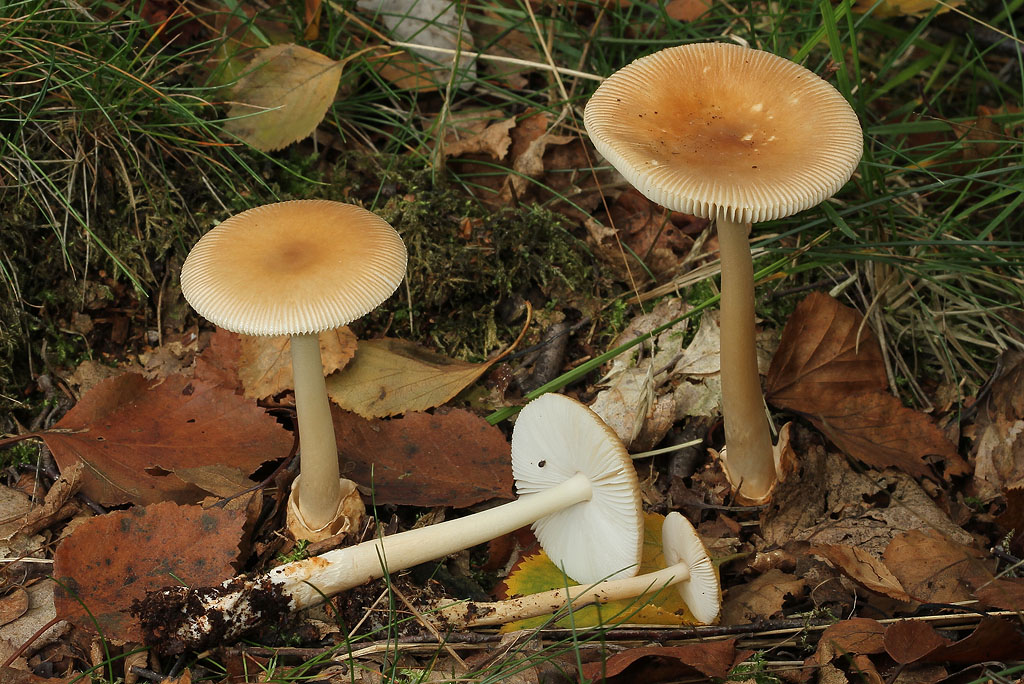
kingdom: Fungi
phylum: Basidiomycota
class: Agaricomycetes
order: Agaricales
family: Amanitaceae
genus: Amanita
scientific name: Amanita fulva
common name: brun kam-fluesvamp
